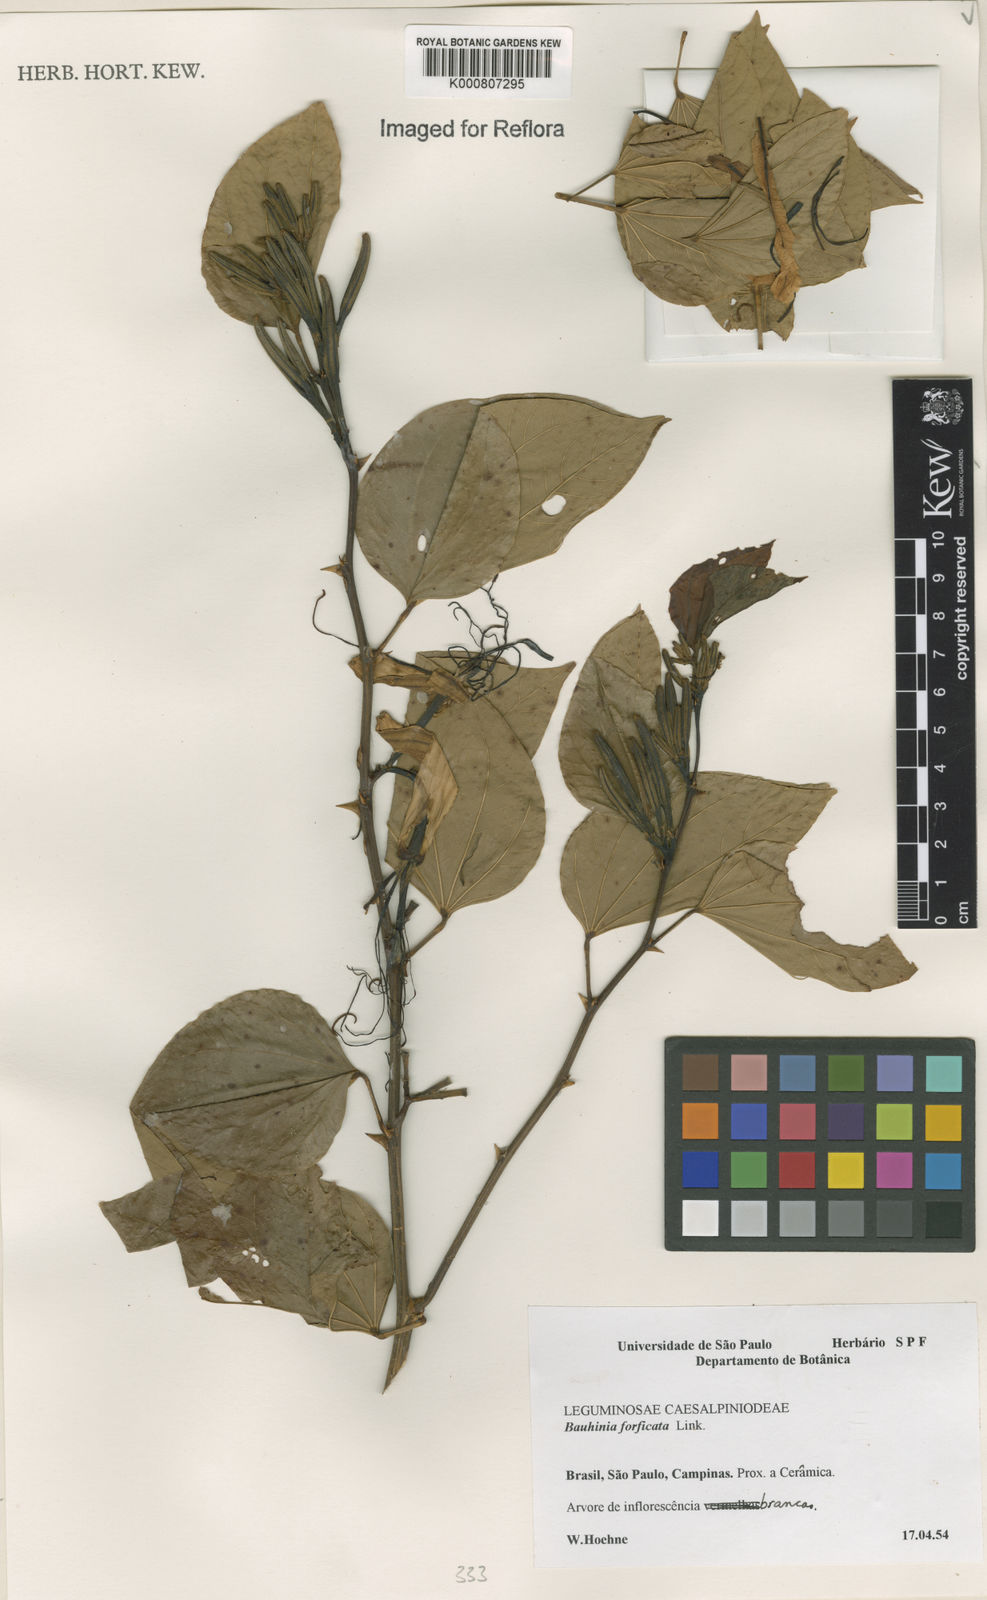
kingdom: Plantae
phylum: Tracheophyta
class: Magnoliopsida
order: Fabales
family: Fabaceae
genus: Bauhinia
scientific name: Bauhinia forficata
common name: Orchid tree
